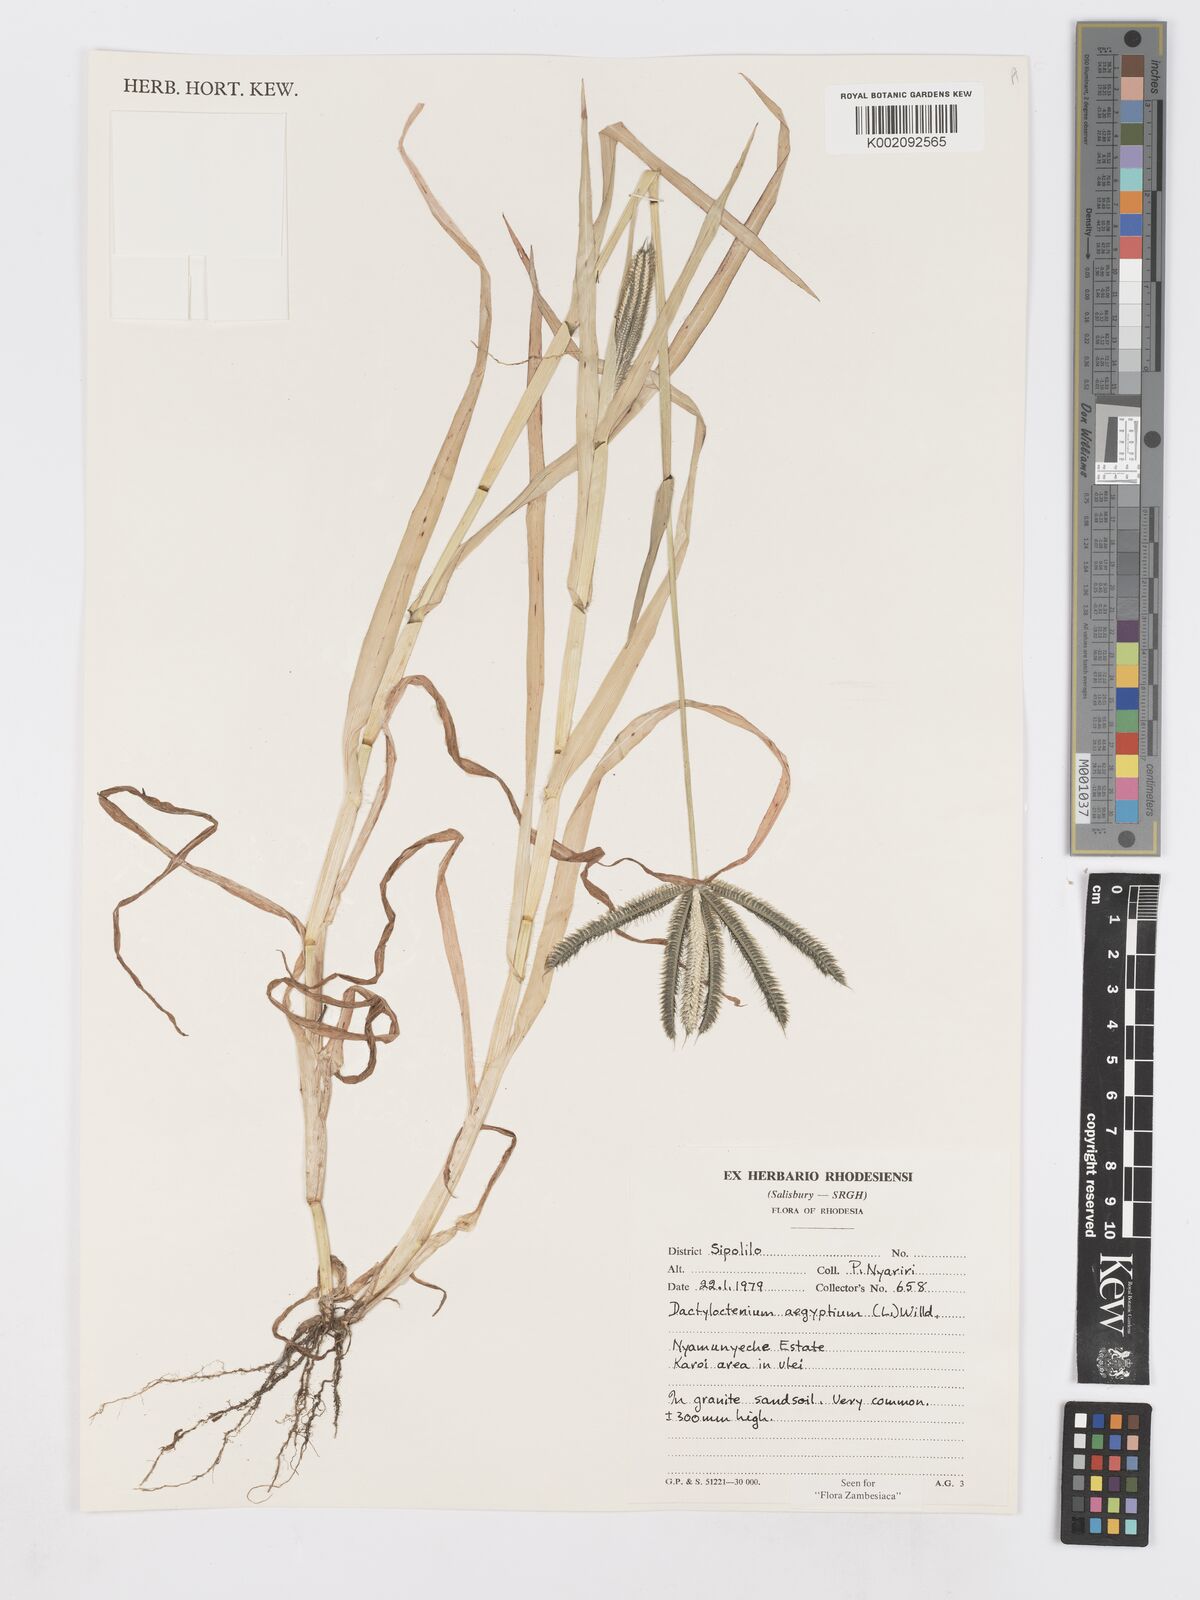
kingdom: Plantae
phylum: Tracheophyta
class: Liliopsida
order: Poales
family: Poaceae
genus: Dactyloctenium
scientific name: Dactyloctenium aegyptium
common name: Egyptian grass
